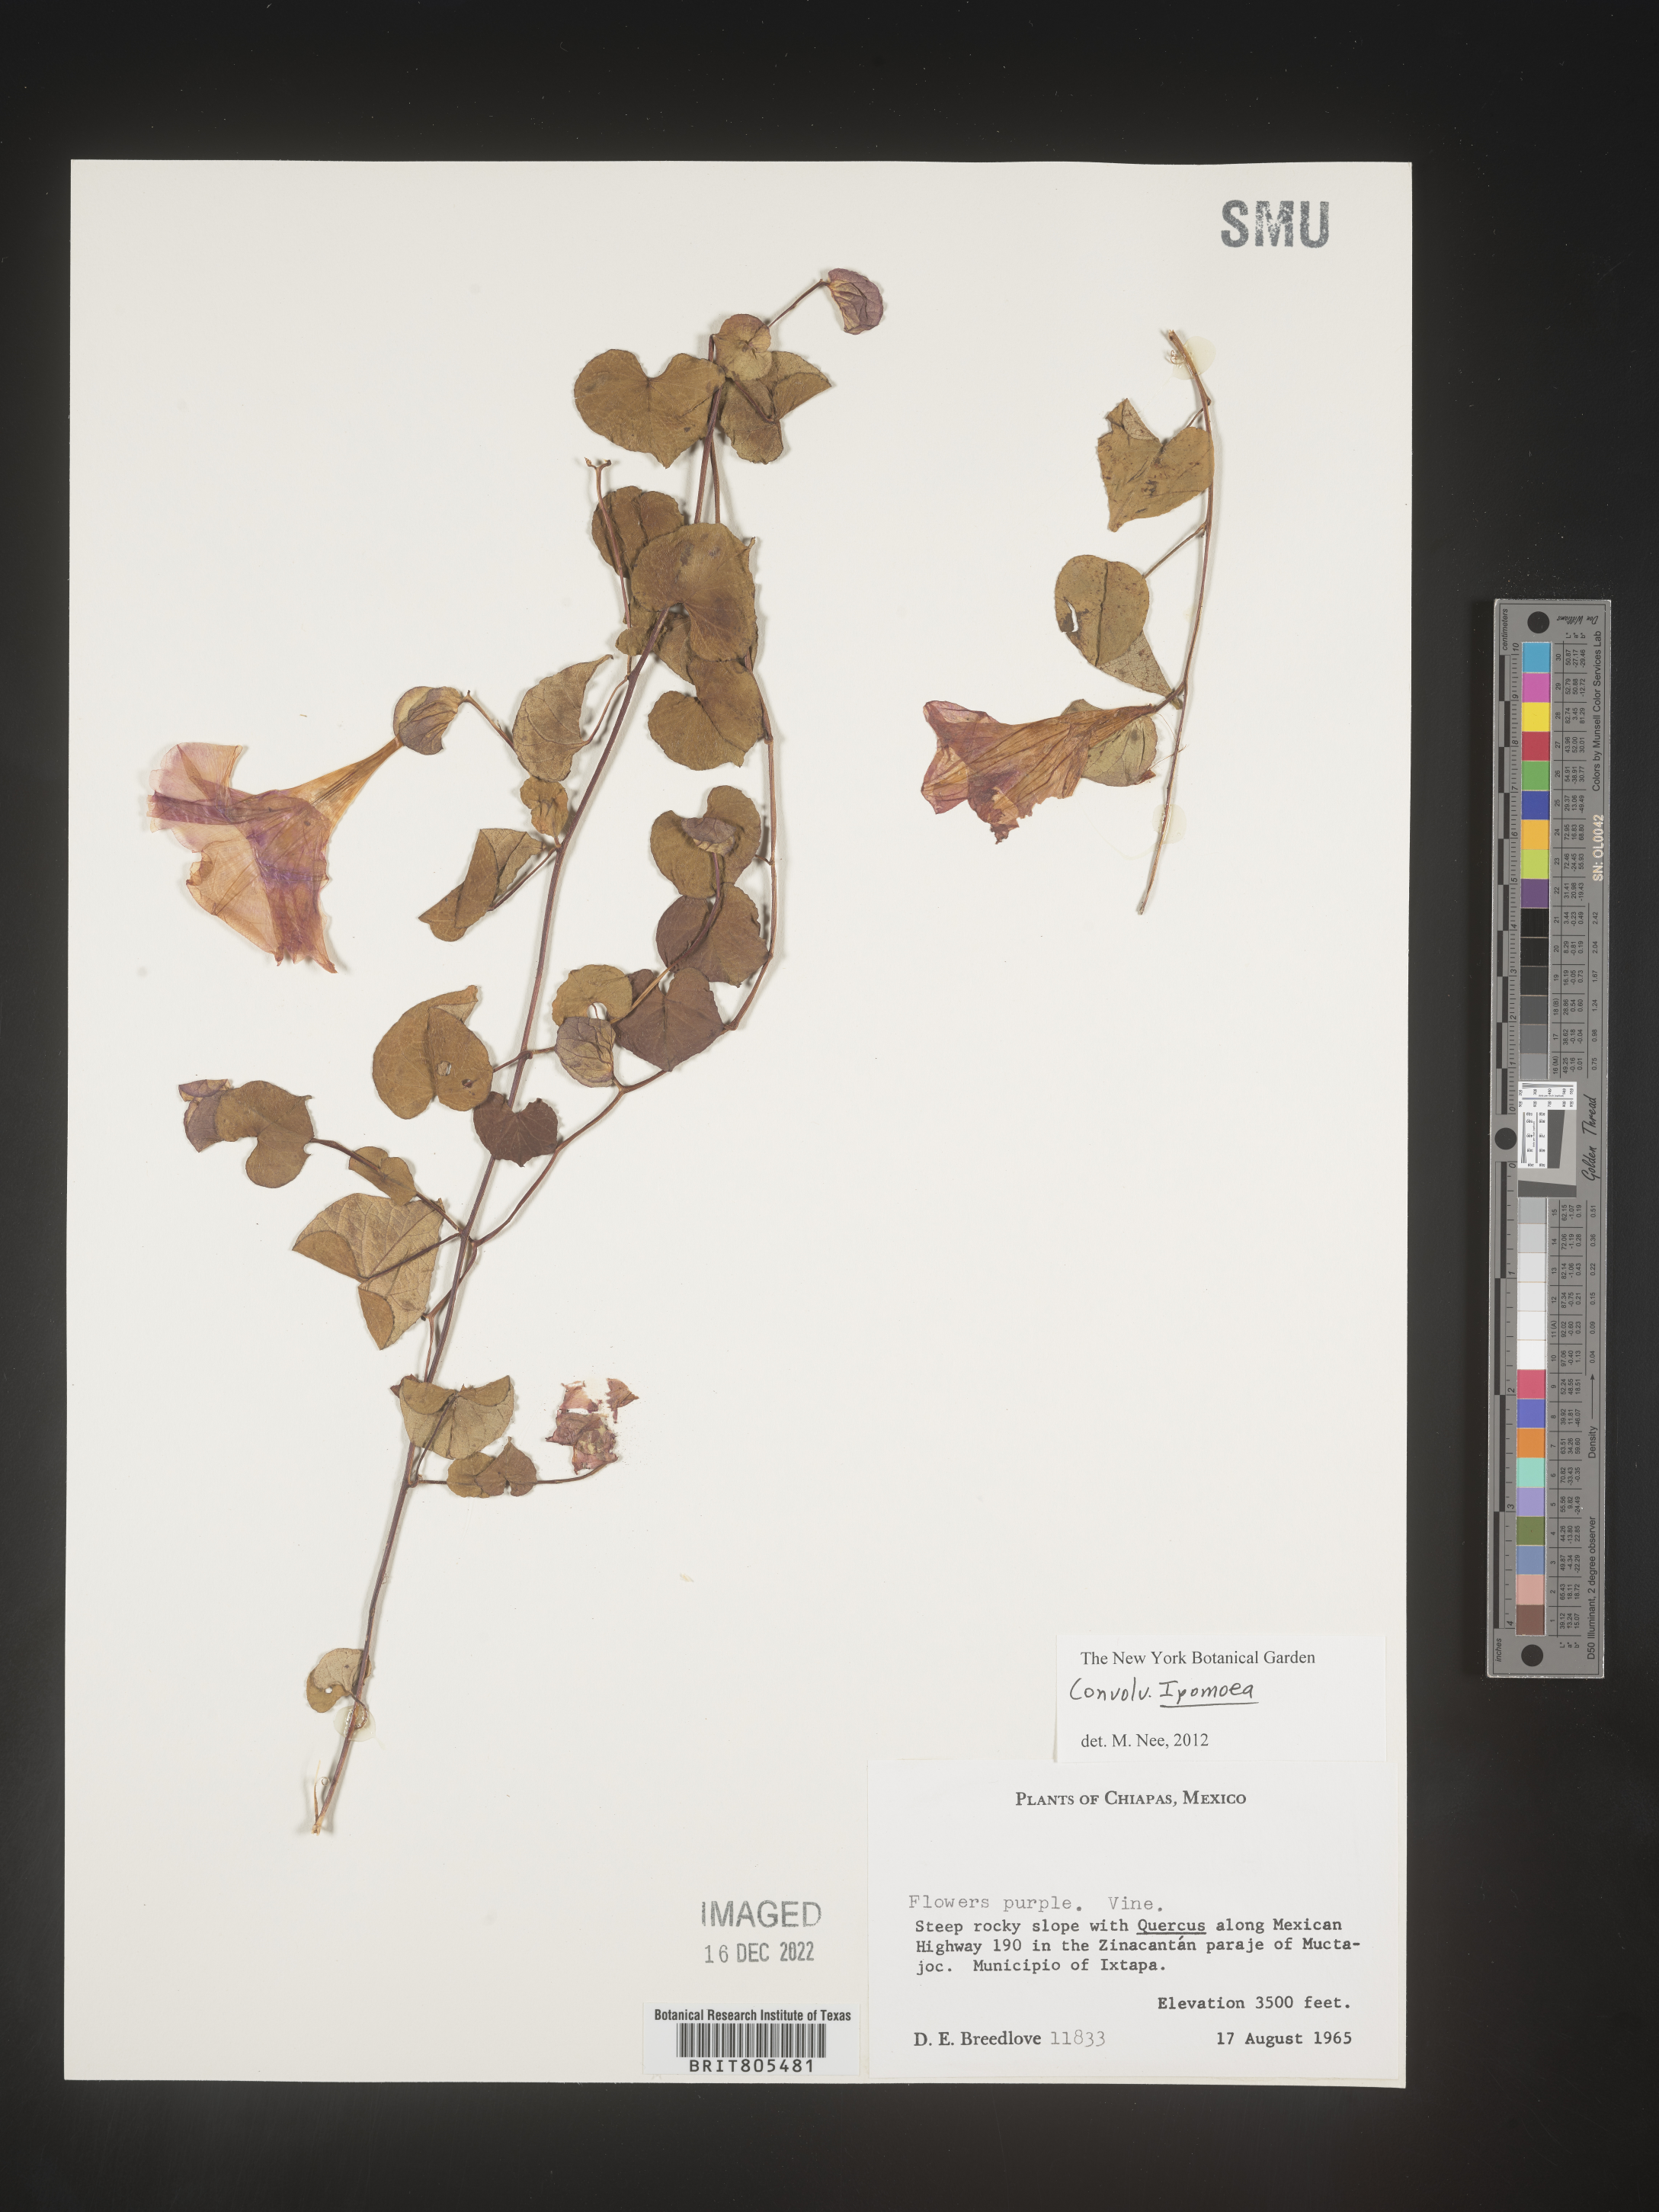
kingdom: Plantae
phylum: Tracheophyta
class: Magnoliopsida
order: Solanales
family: Convolvulaceae
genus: Ipomoea
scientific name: Ipomoea
